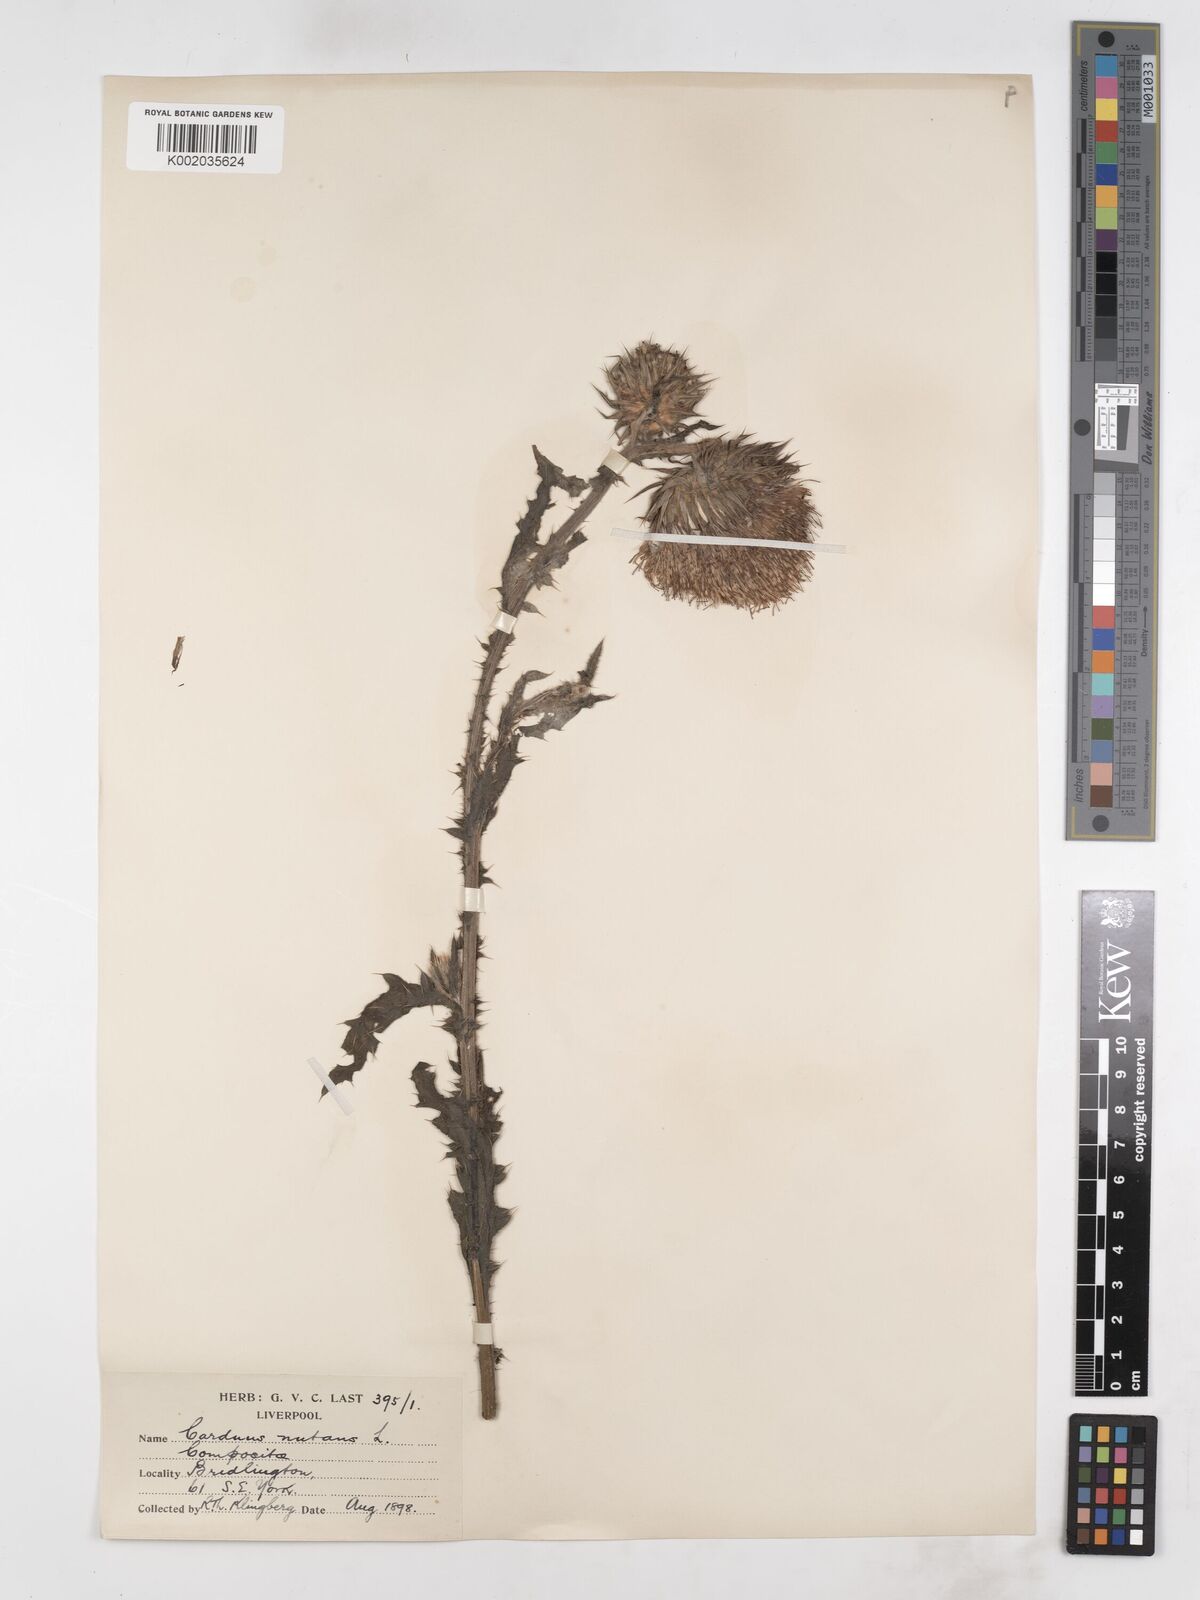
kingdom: Plantae
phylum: Tracheophyta
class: Magnoliopsida
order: Asterales
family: Asteraceae
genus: Carduus
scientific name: Carduus nutans
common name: Musk thistle
